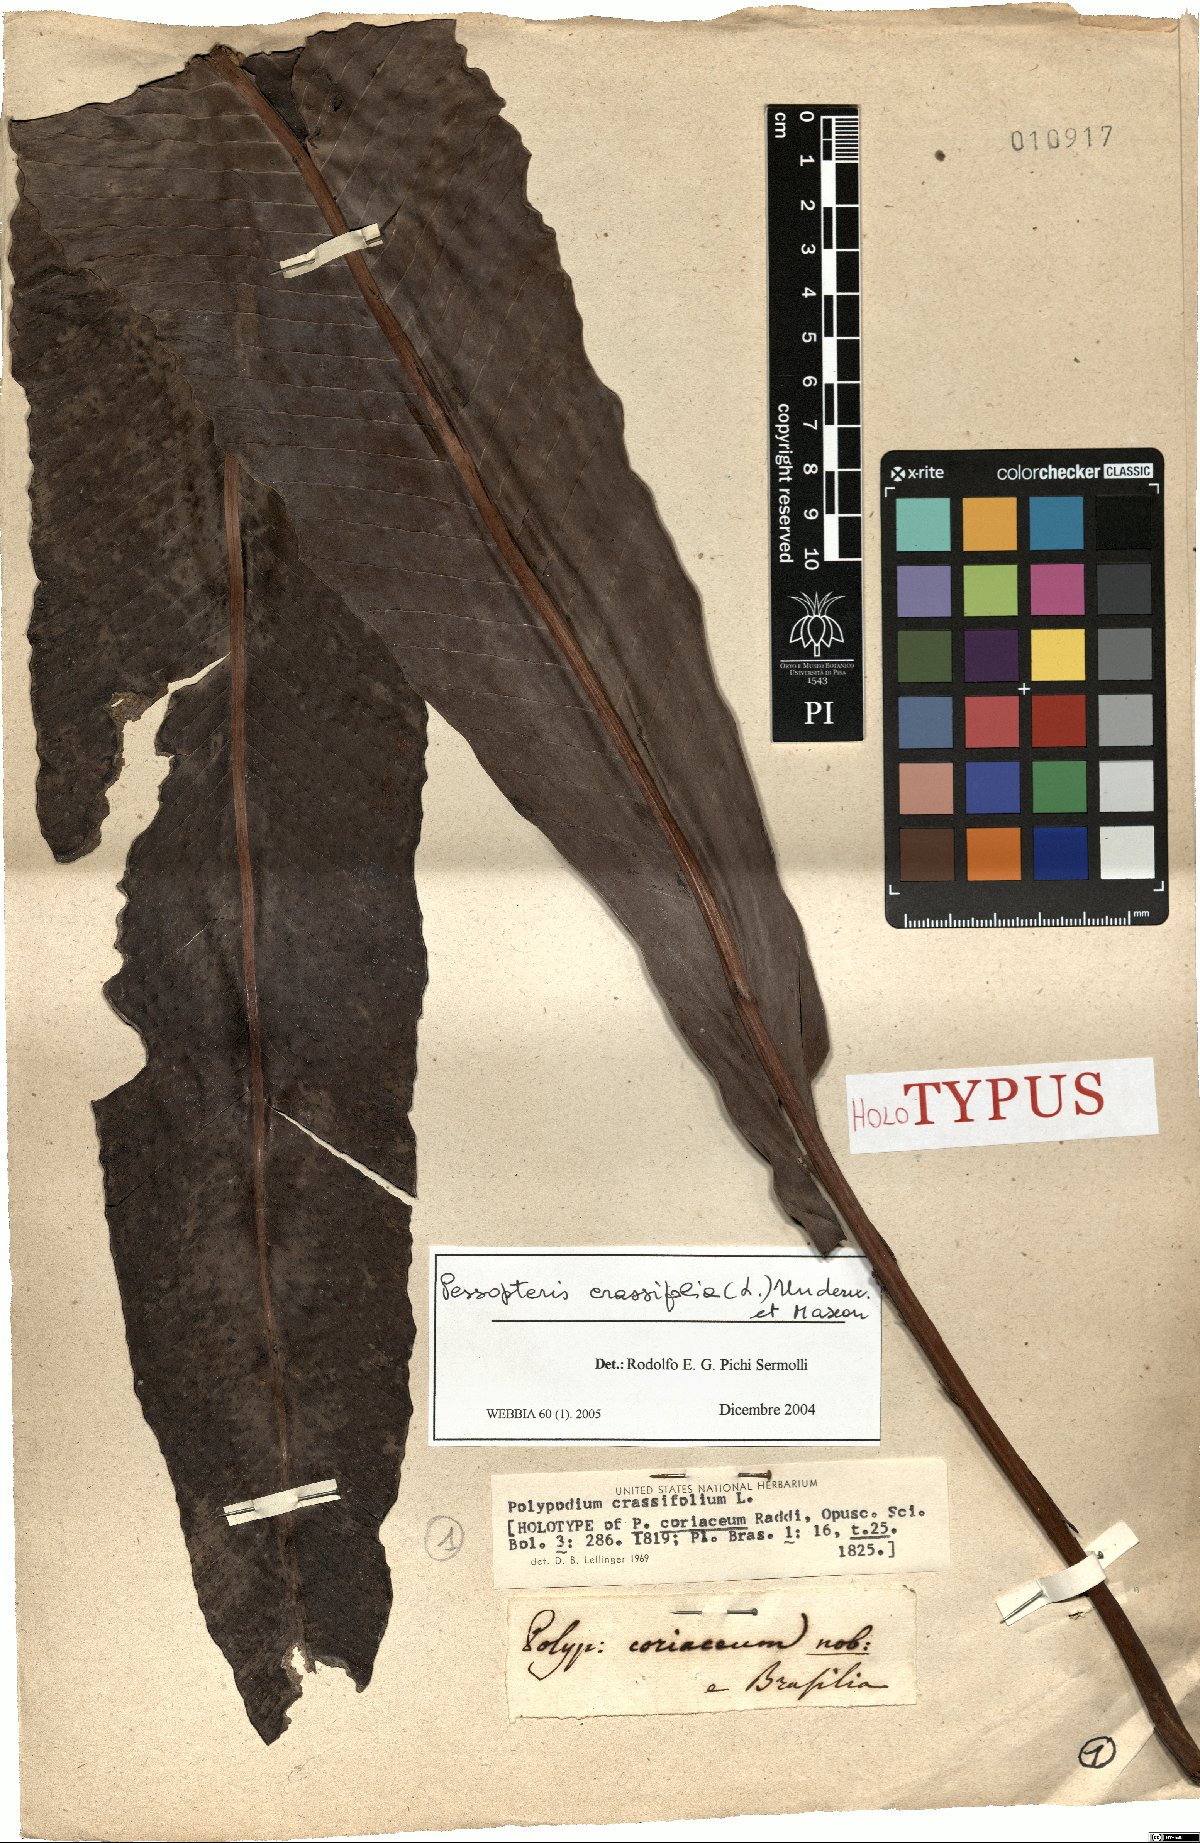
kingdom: Plantae
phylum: Tracheophyta
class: Polypodiopsida
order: Polypodiales
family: Polypodiaceae
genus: Niphidium
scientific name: Niphidium crassifolium
